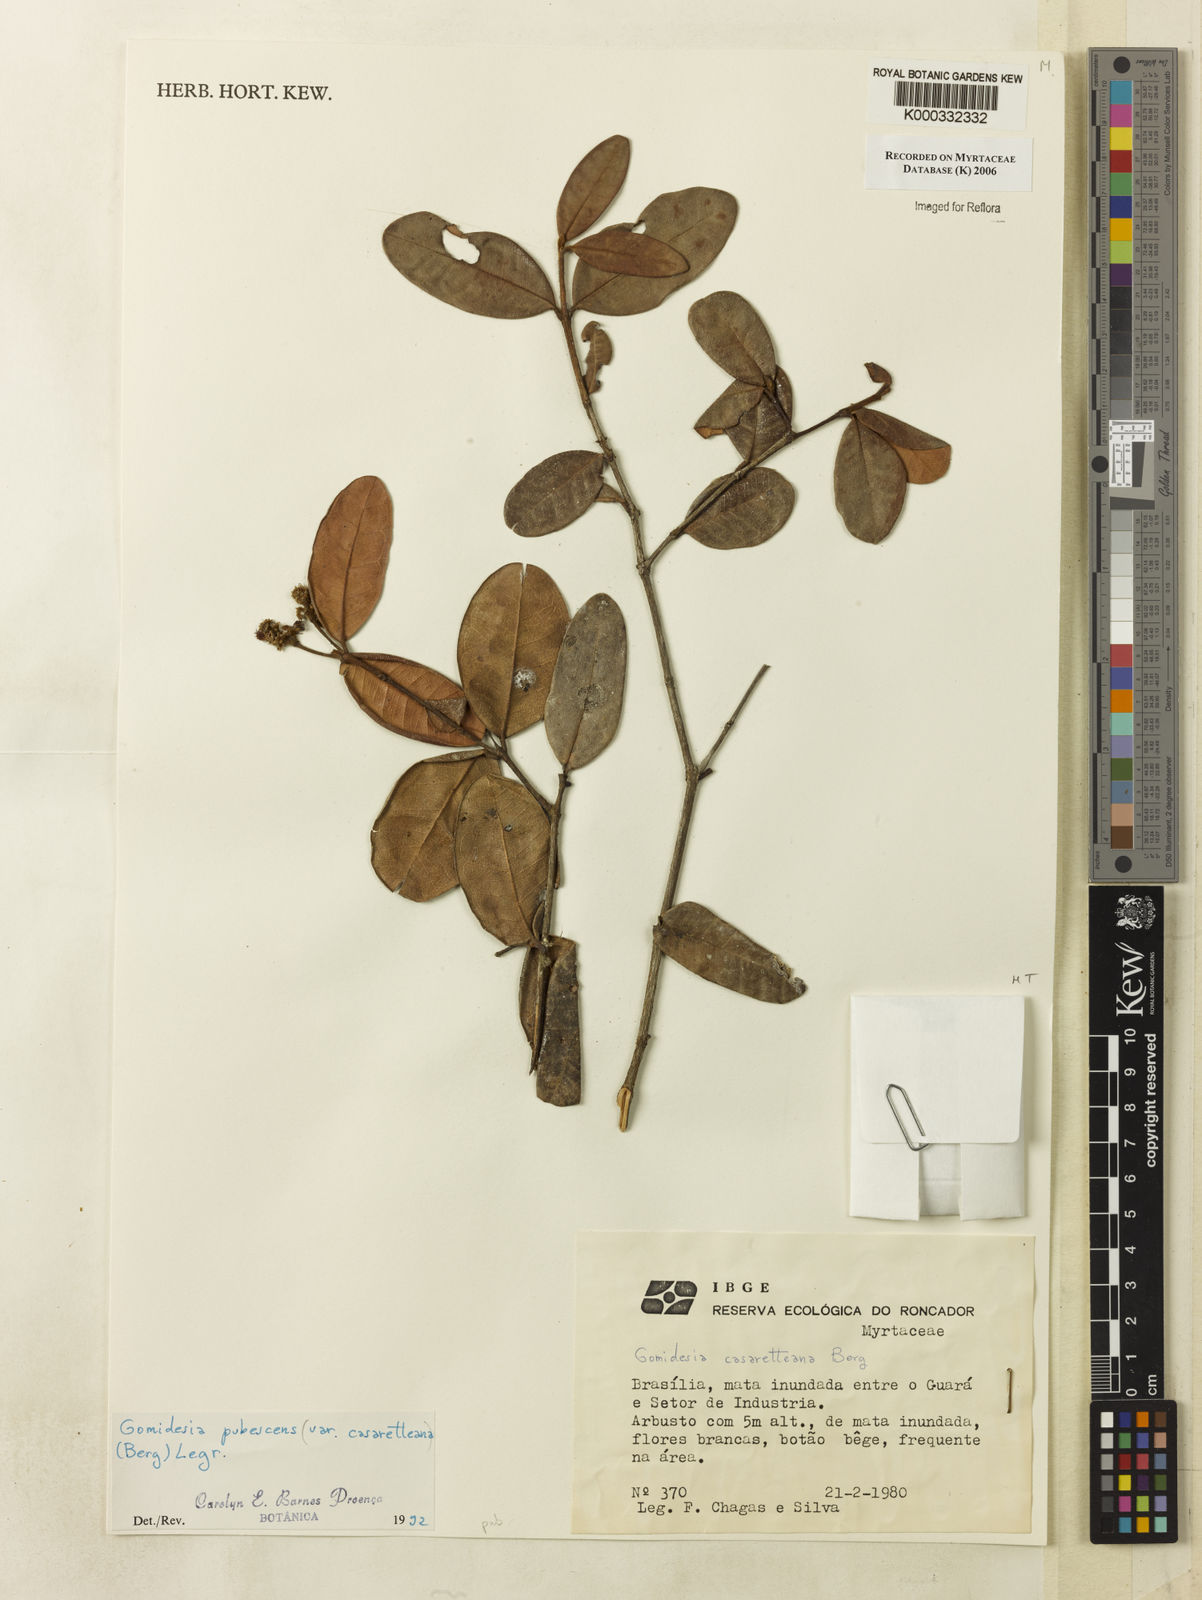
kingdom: Plantae
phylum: Tracheophyta
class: Magnoliopsida
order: Myrtales
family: Myrtaceae
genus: Myrcia
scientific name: Myrcia pubescens
